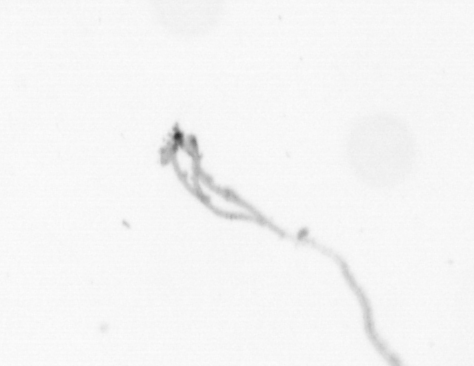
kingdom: Chromista
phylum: Ochrophyta
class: Bacillariophyceae
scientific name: Bacillariophyceae
